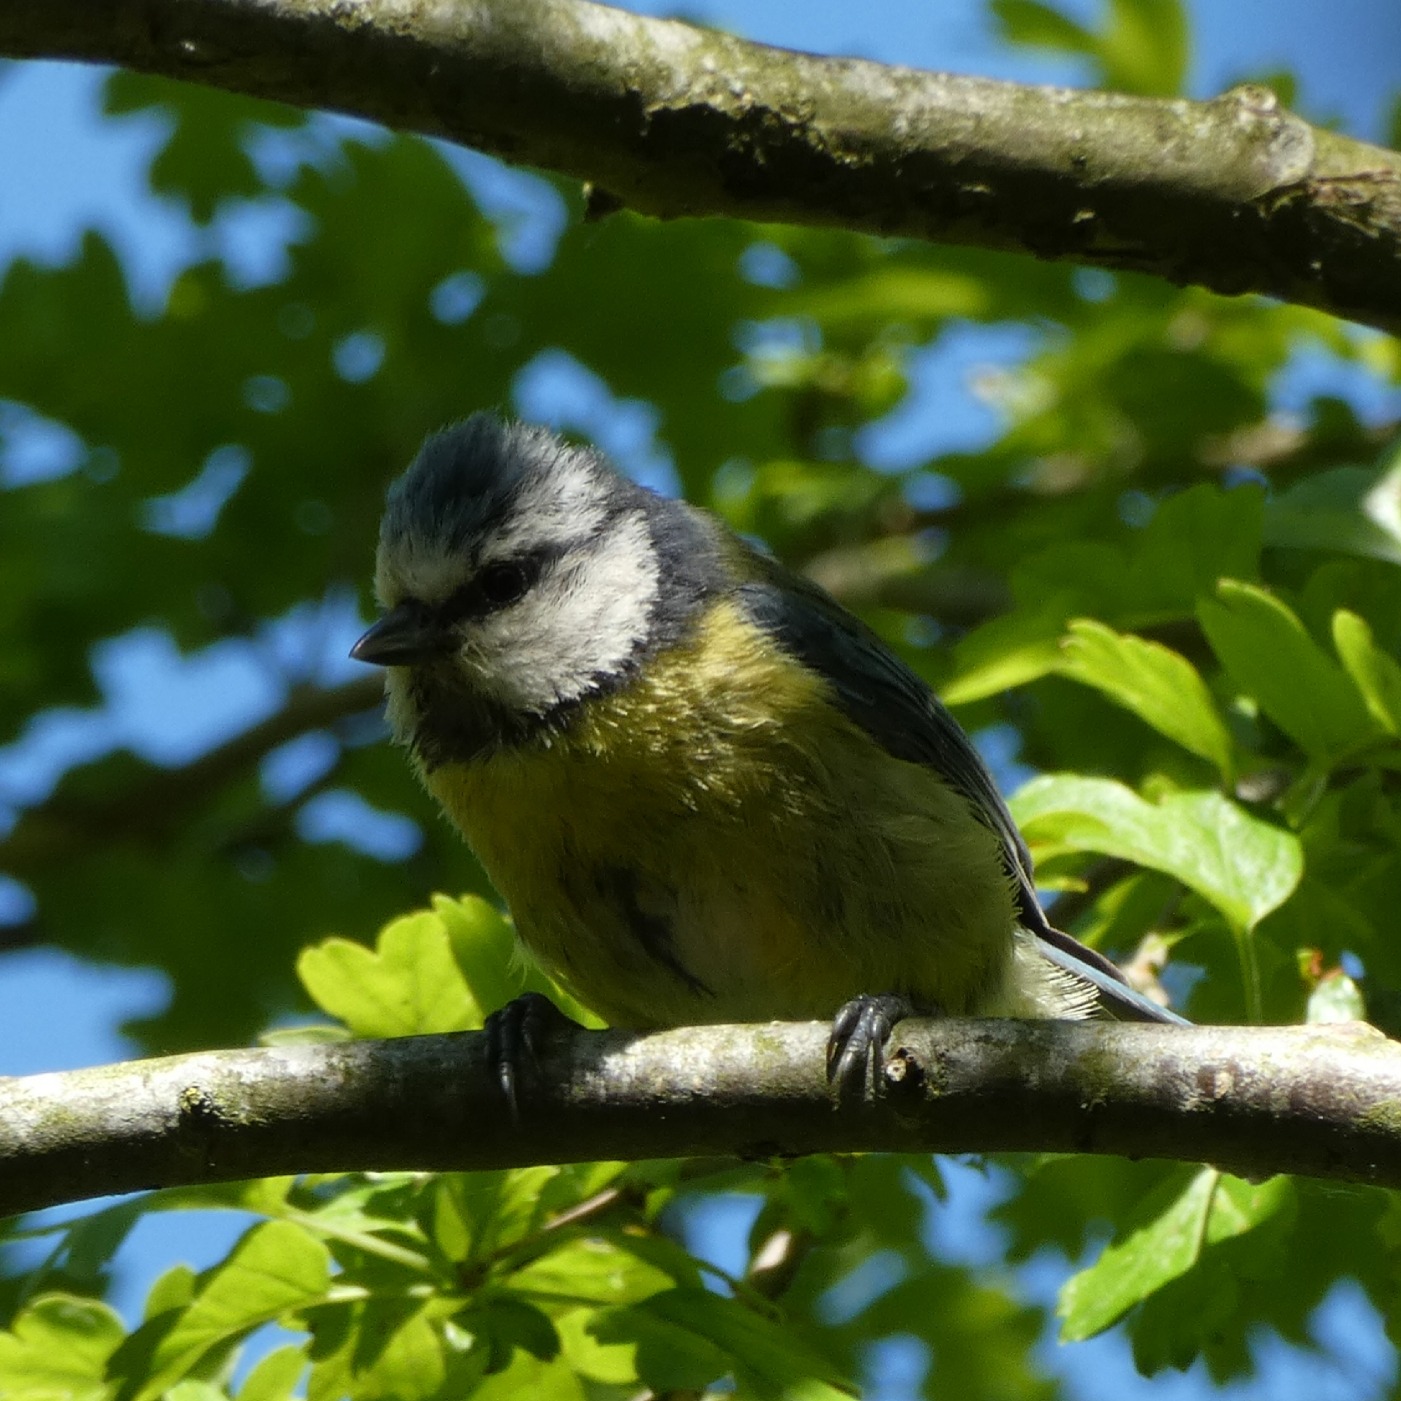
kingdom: Animalia
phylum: Chordata
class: Aves
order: Passeriformes
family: Paridae
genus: Cyanistes
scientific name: Cyanistes caeruleus
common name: Blåmejse
